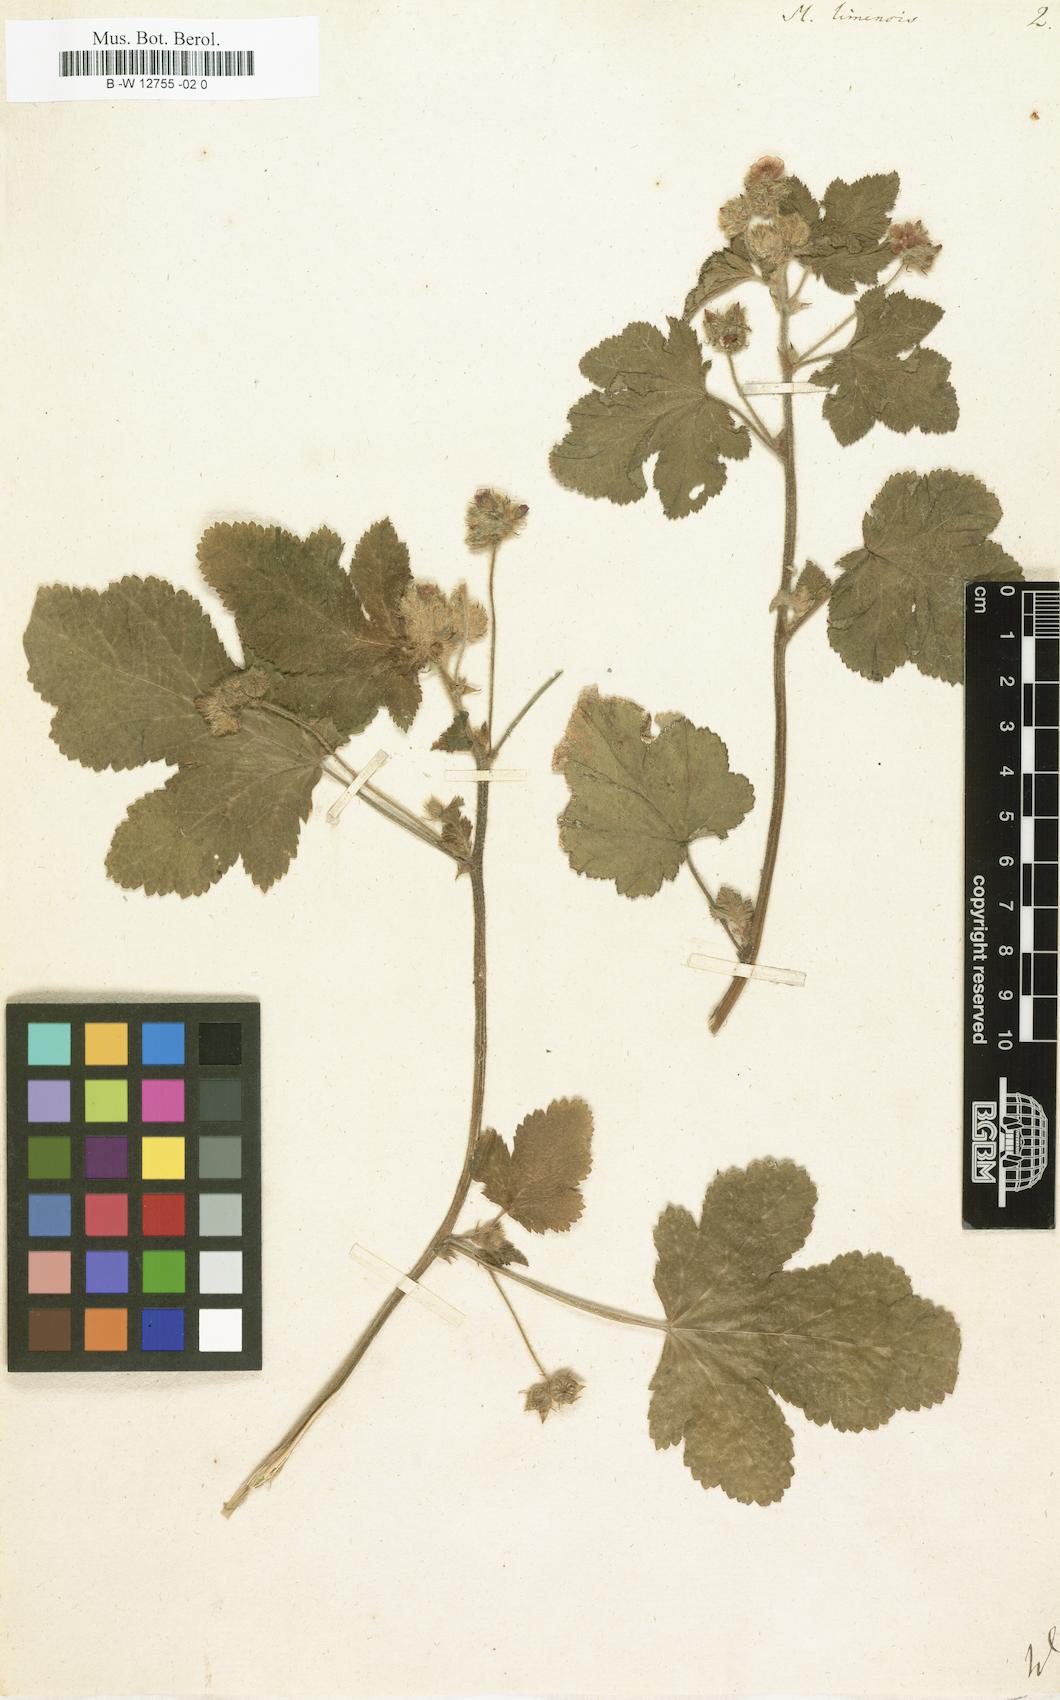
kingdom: Plantae
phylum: Tracheophyta
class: Magnoliopsida
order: Malvales
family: Malvaceae
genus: Fuertesimalva
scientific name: Fuertesimalva limensis
